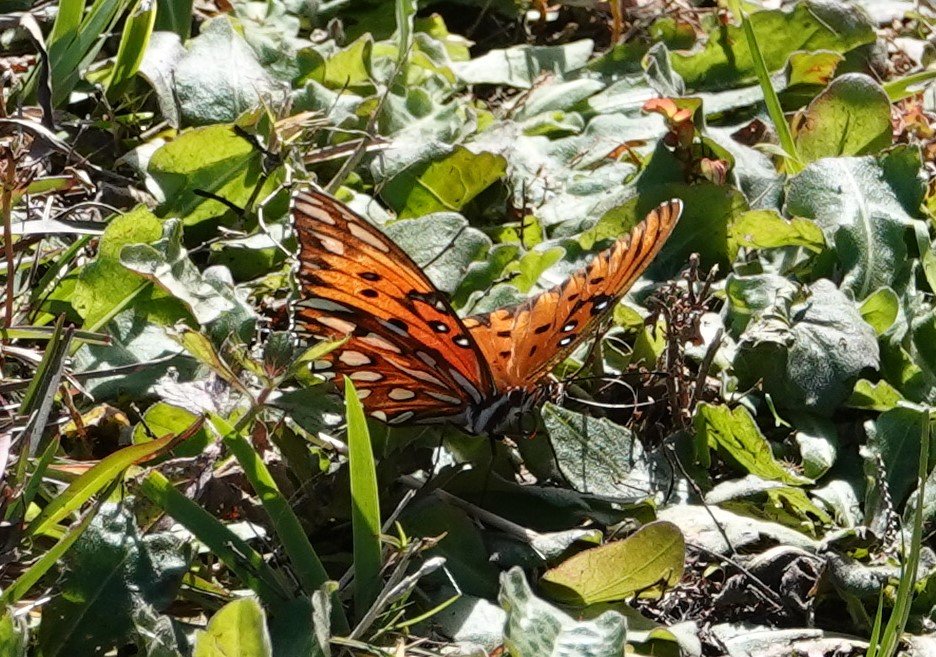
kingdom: Animalia
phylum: Arthropoda
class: Insecta
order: Lepidoptera
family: Nymphalidae
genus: Dione
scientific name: Dione vanillae
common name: Gulf Fritillary
